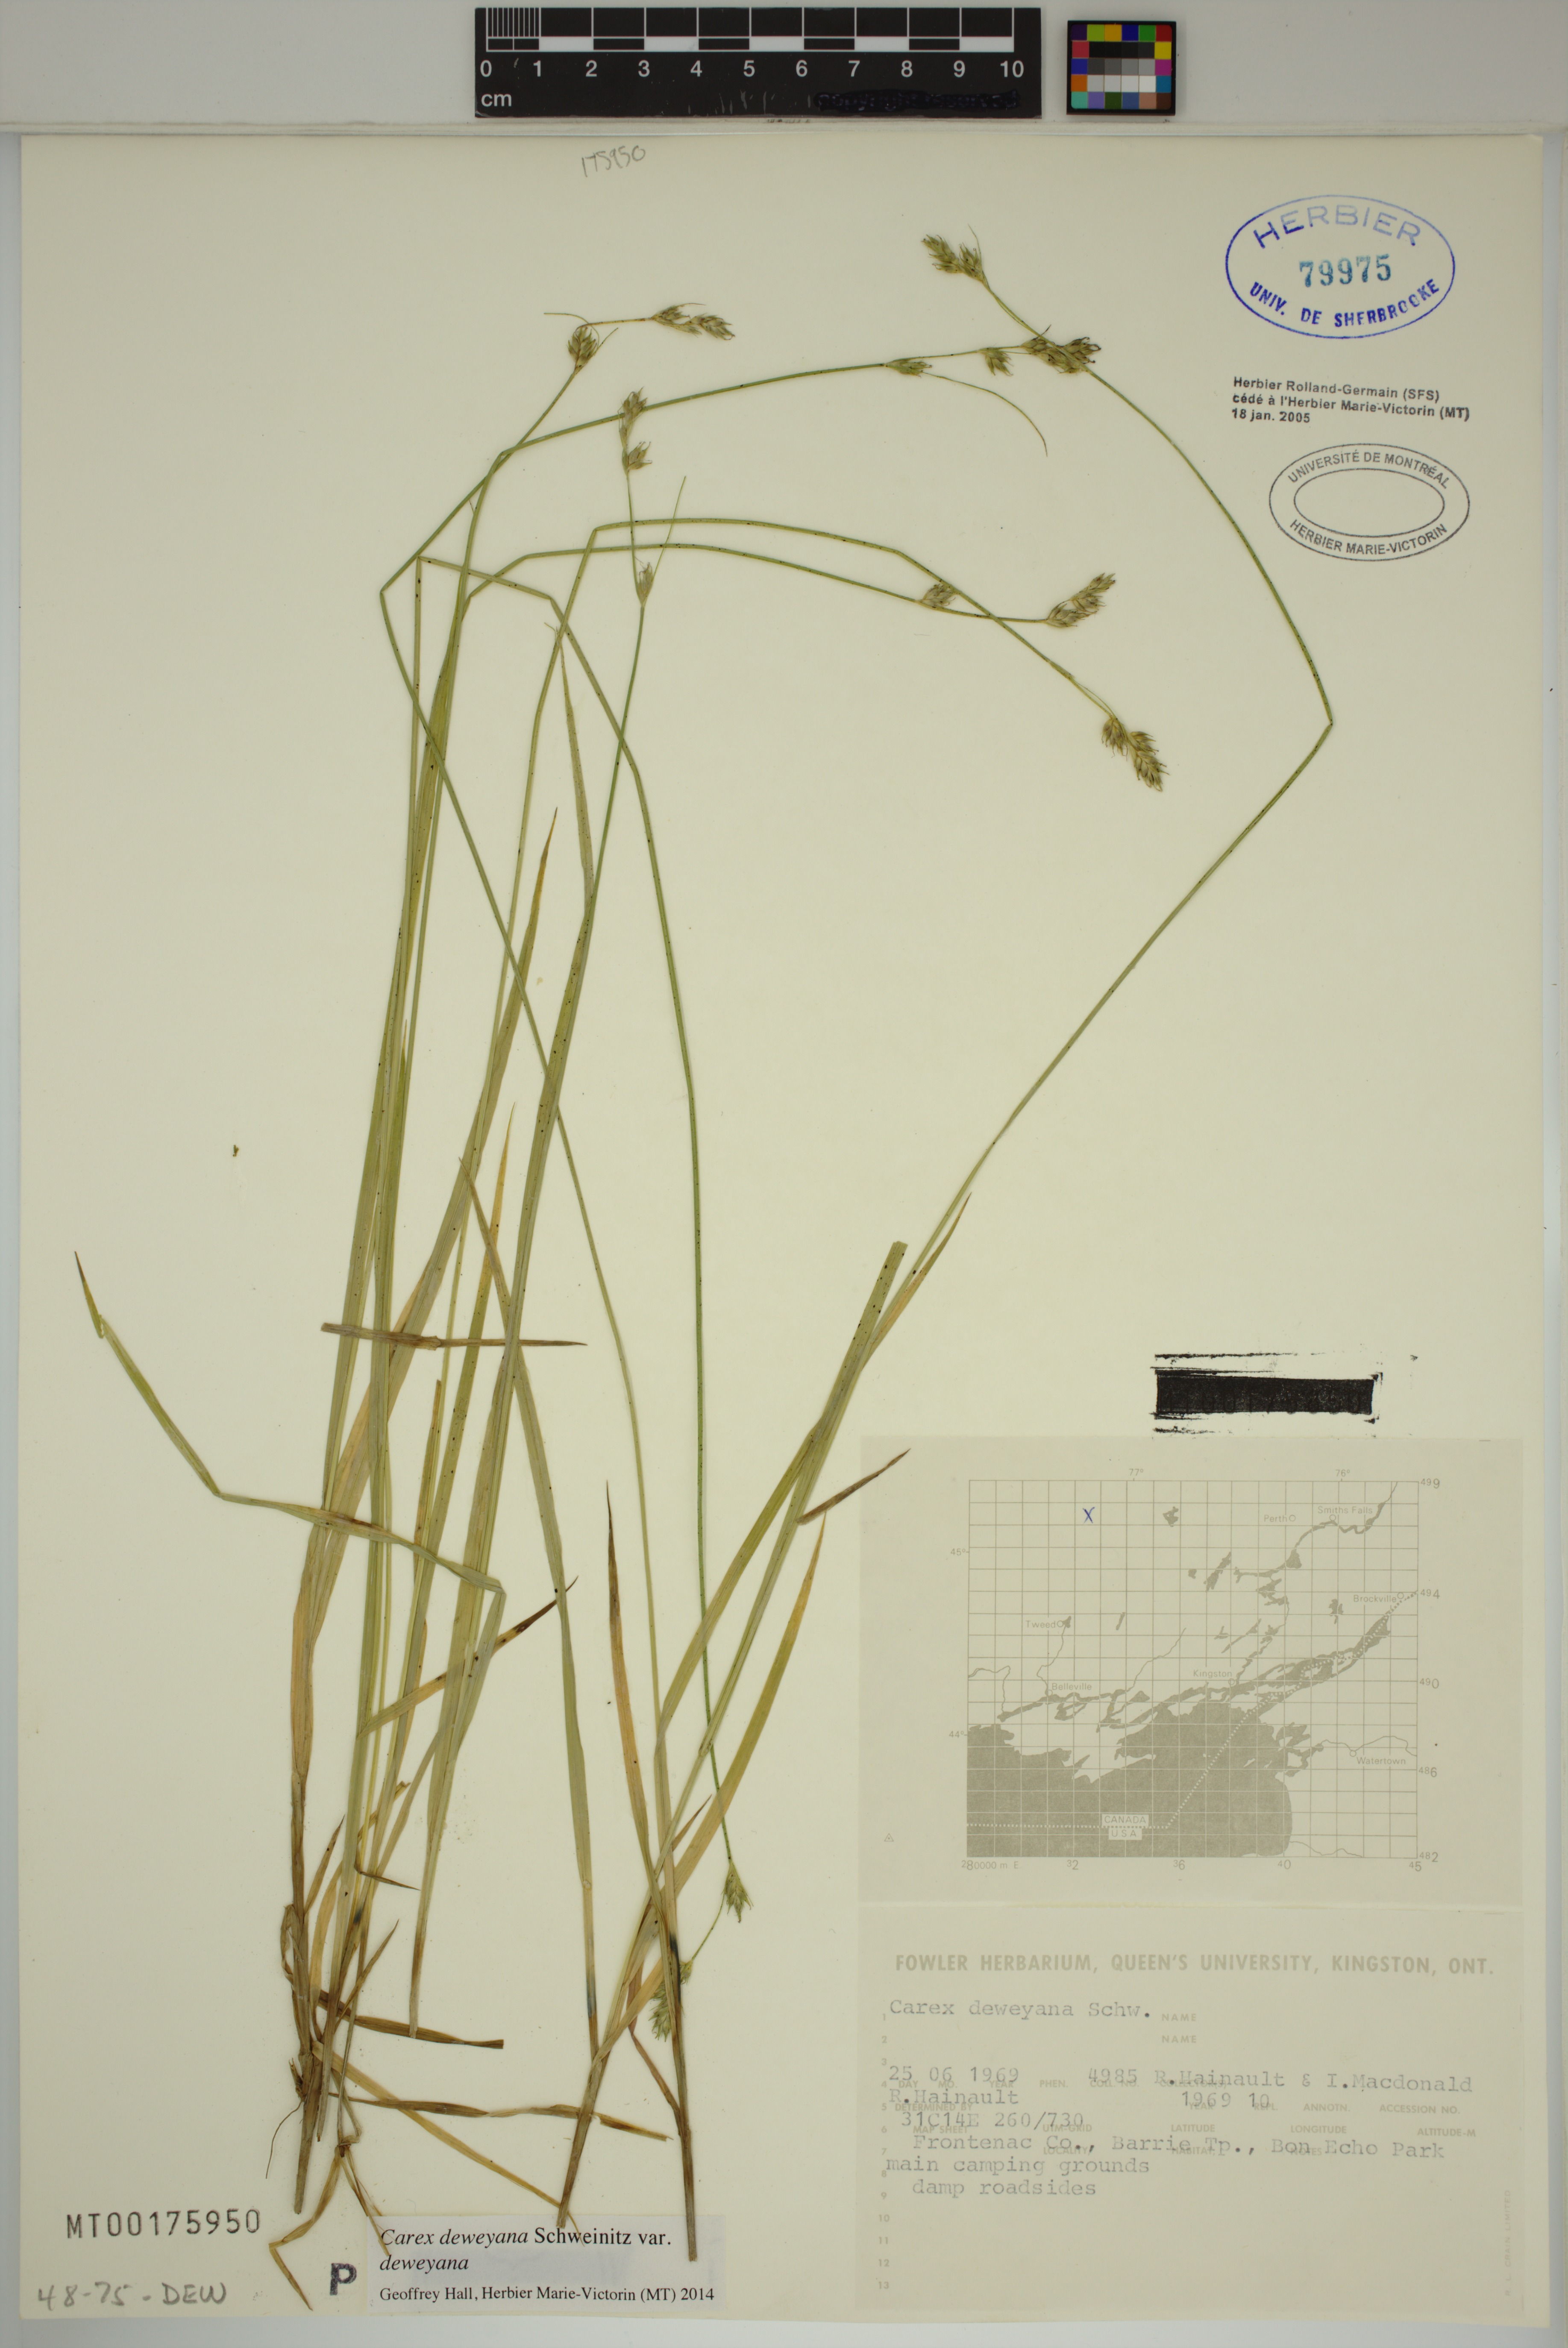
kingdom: Plantae
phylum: Tracheophyta
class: Liliopsida
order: Poales
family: Cyperaceae
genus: Carex
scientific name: Carex deweyana
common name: Dewey's sedge
